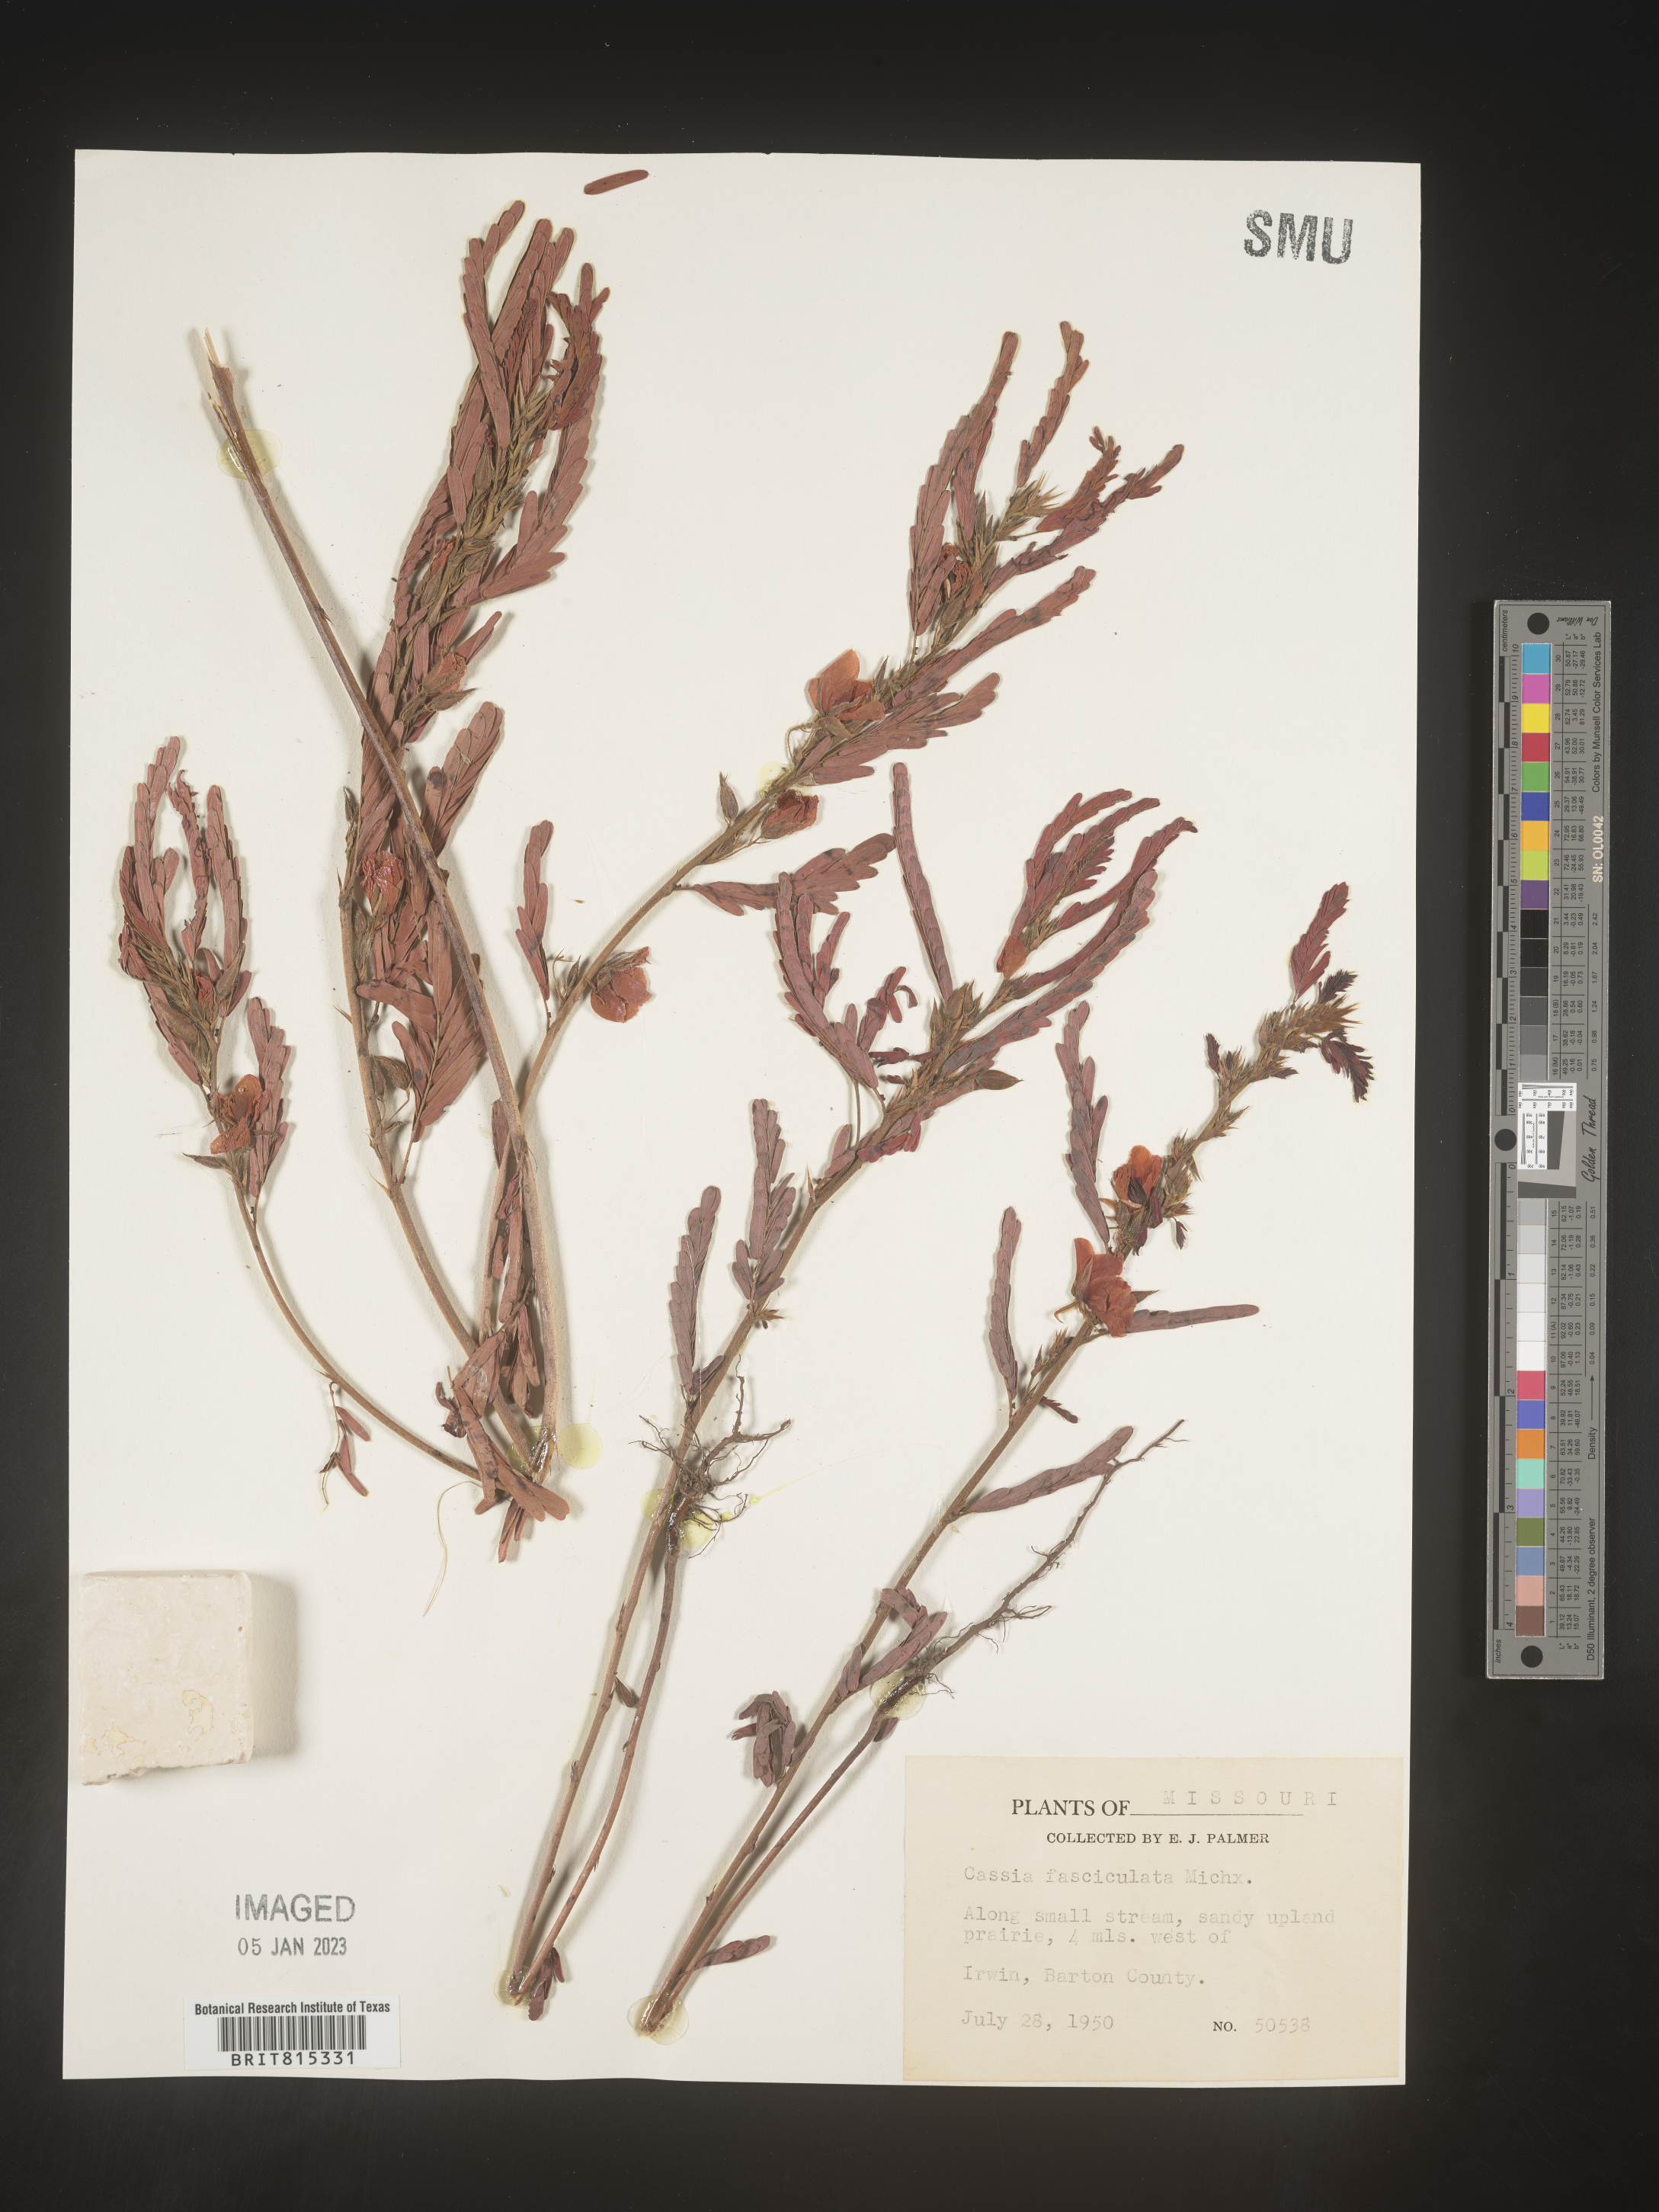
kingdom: Plantae
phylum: Tracheophyta
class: Magnoliopsida
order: Fabales
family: Fabaceae
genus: Chamaecrista
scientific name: Chamaecrista fasciculata
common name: Golden cassia
